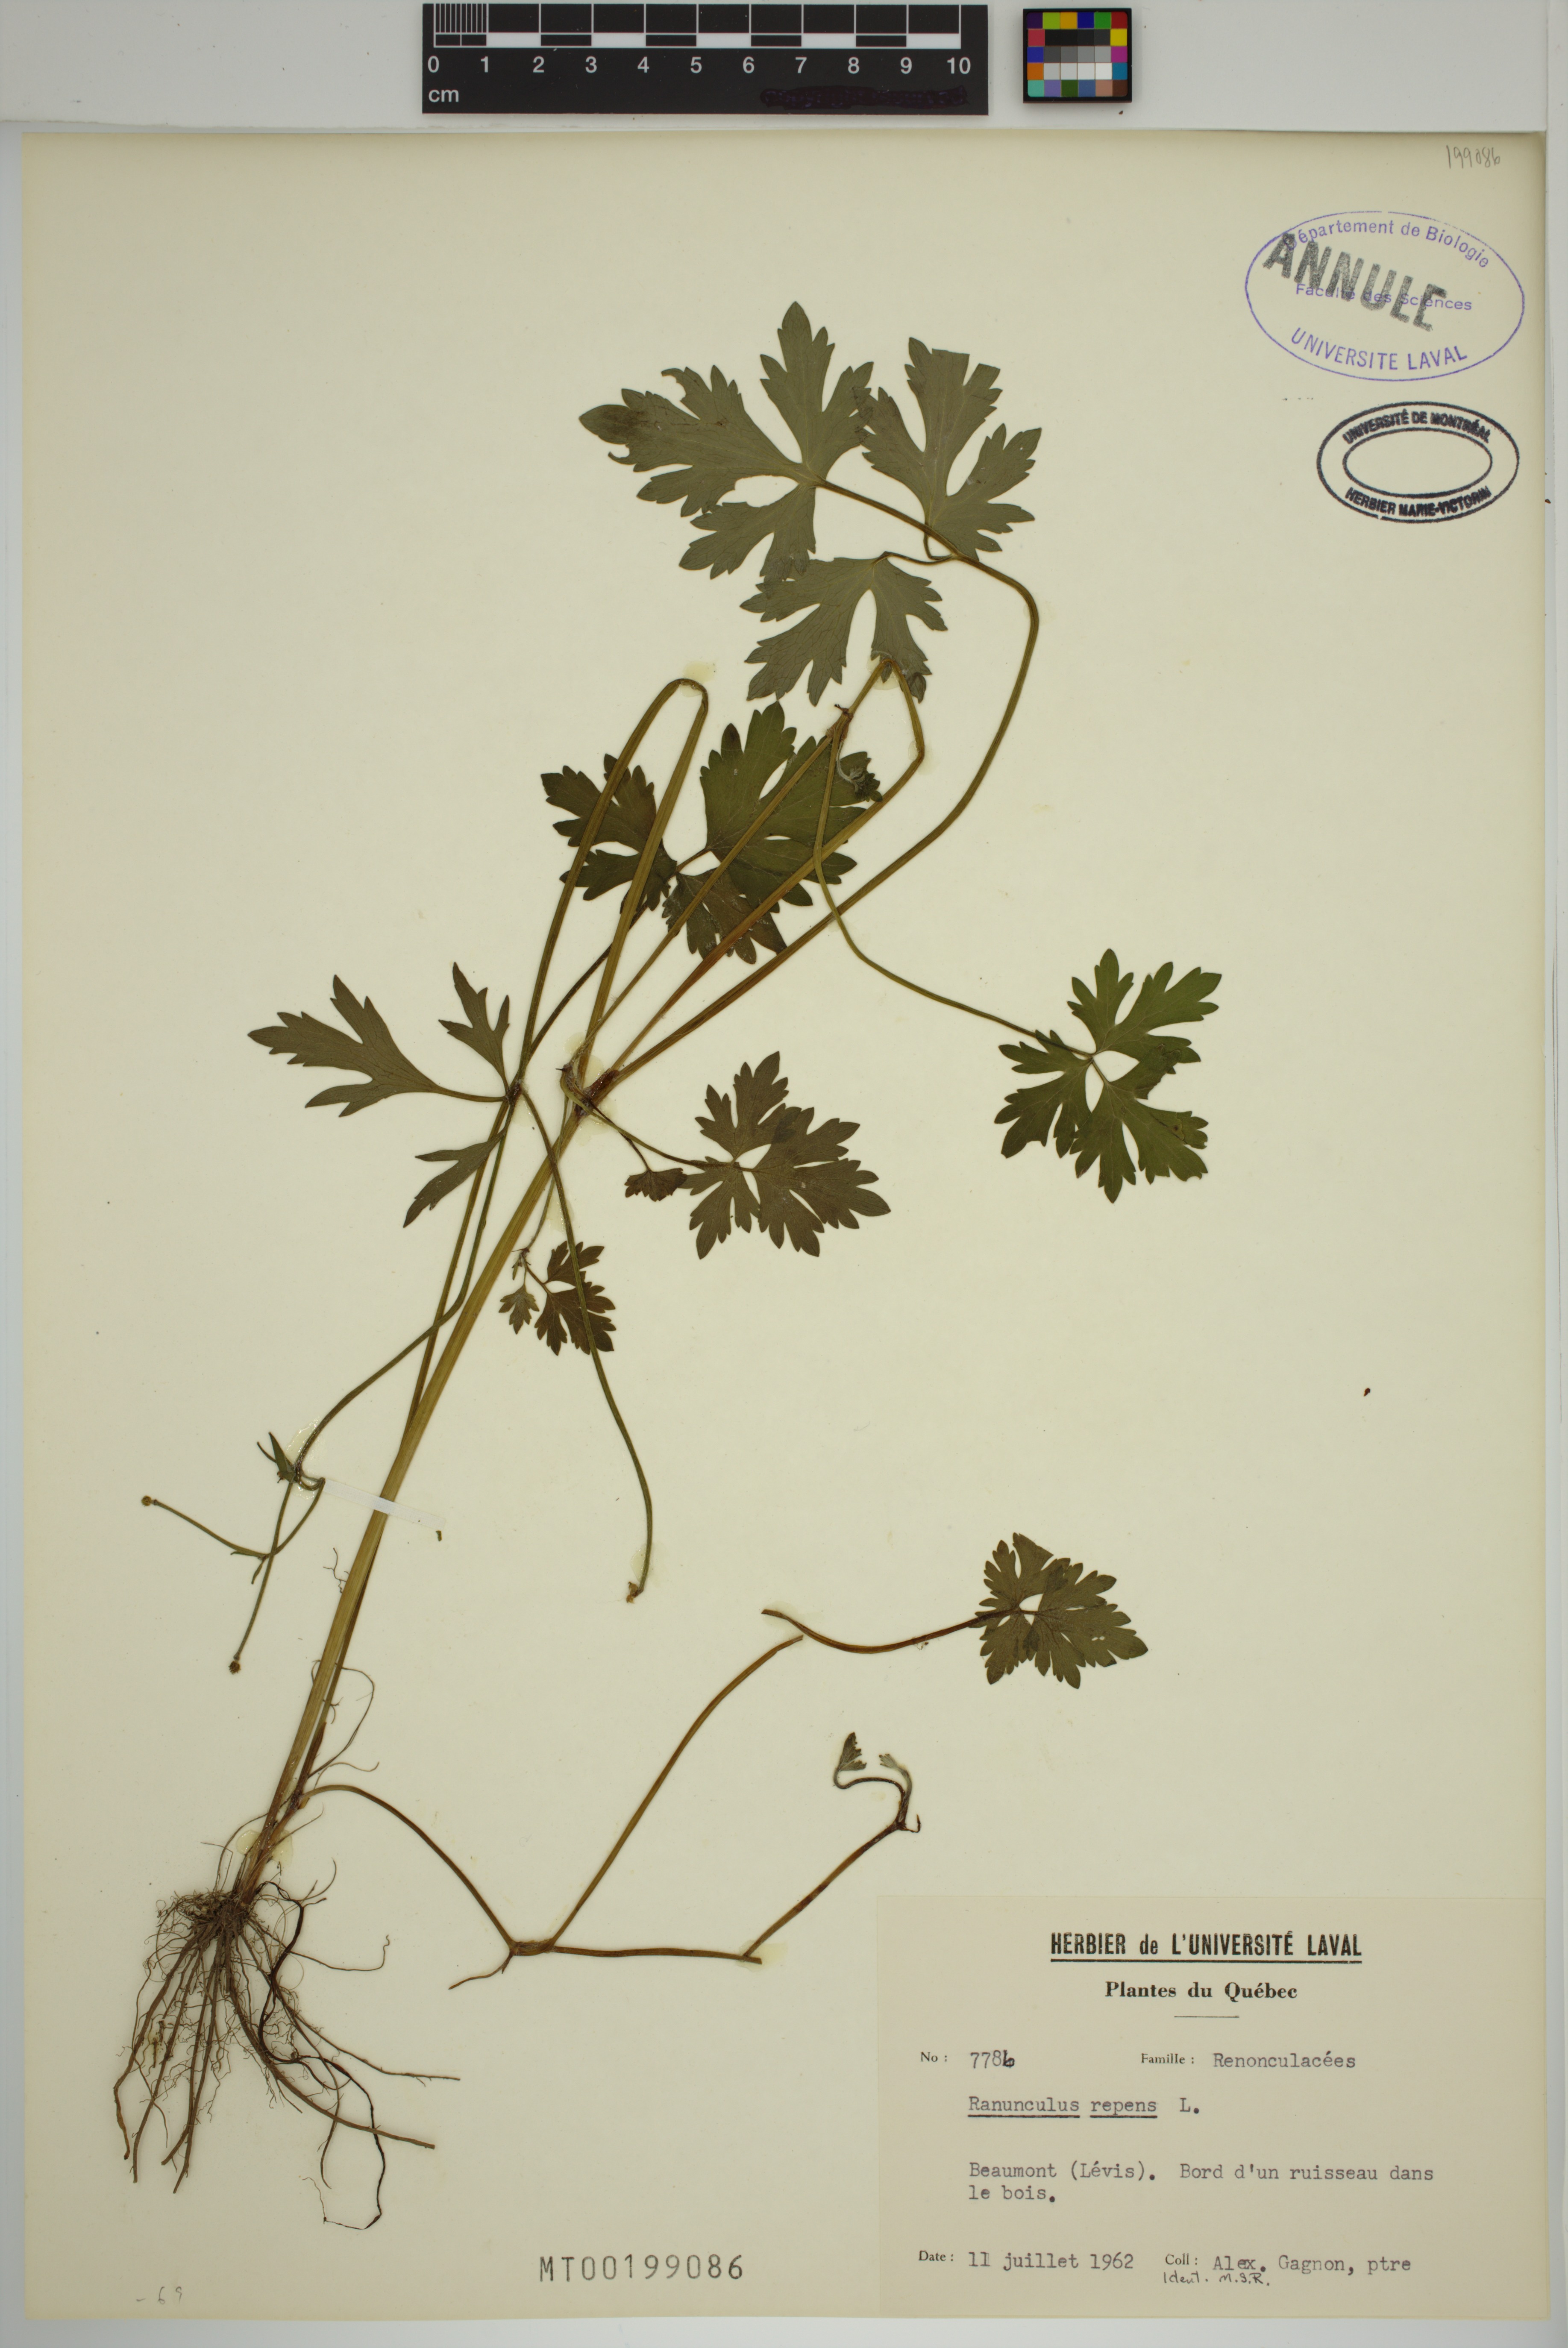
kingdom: Plantae
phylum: Tracheophyta
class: Magnoliopsida
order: Ranunculales
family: Ranunculaceae
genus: Ranunculus
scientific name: Ranunculus repens
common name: Creeping buttercup
